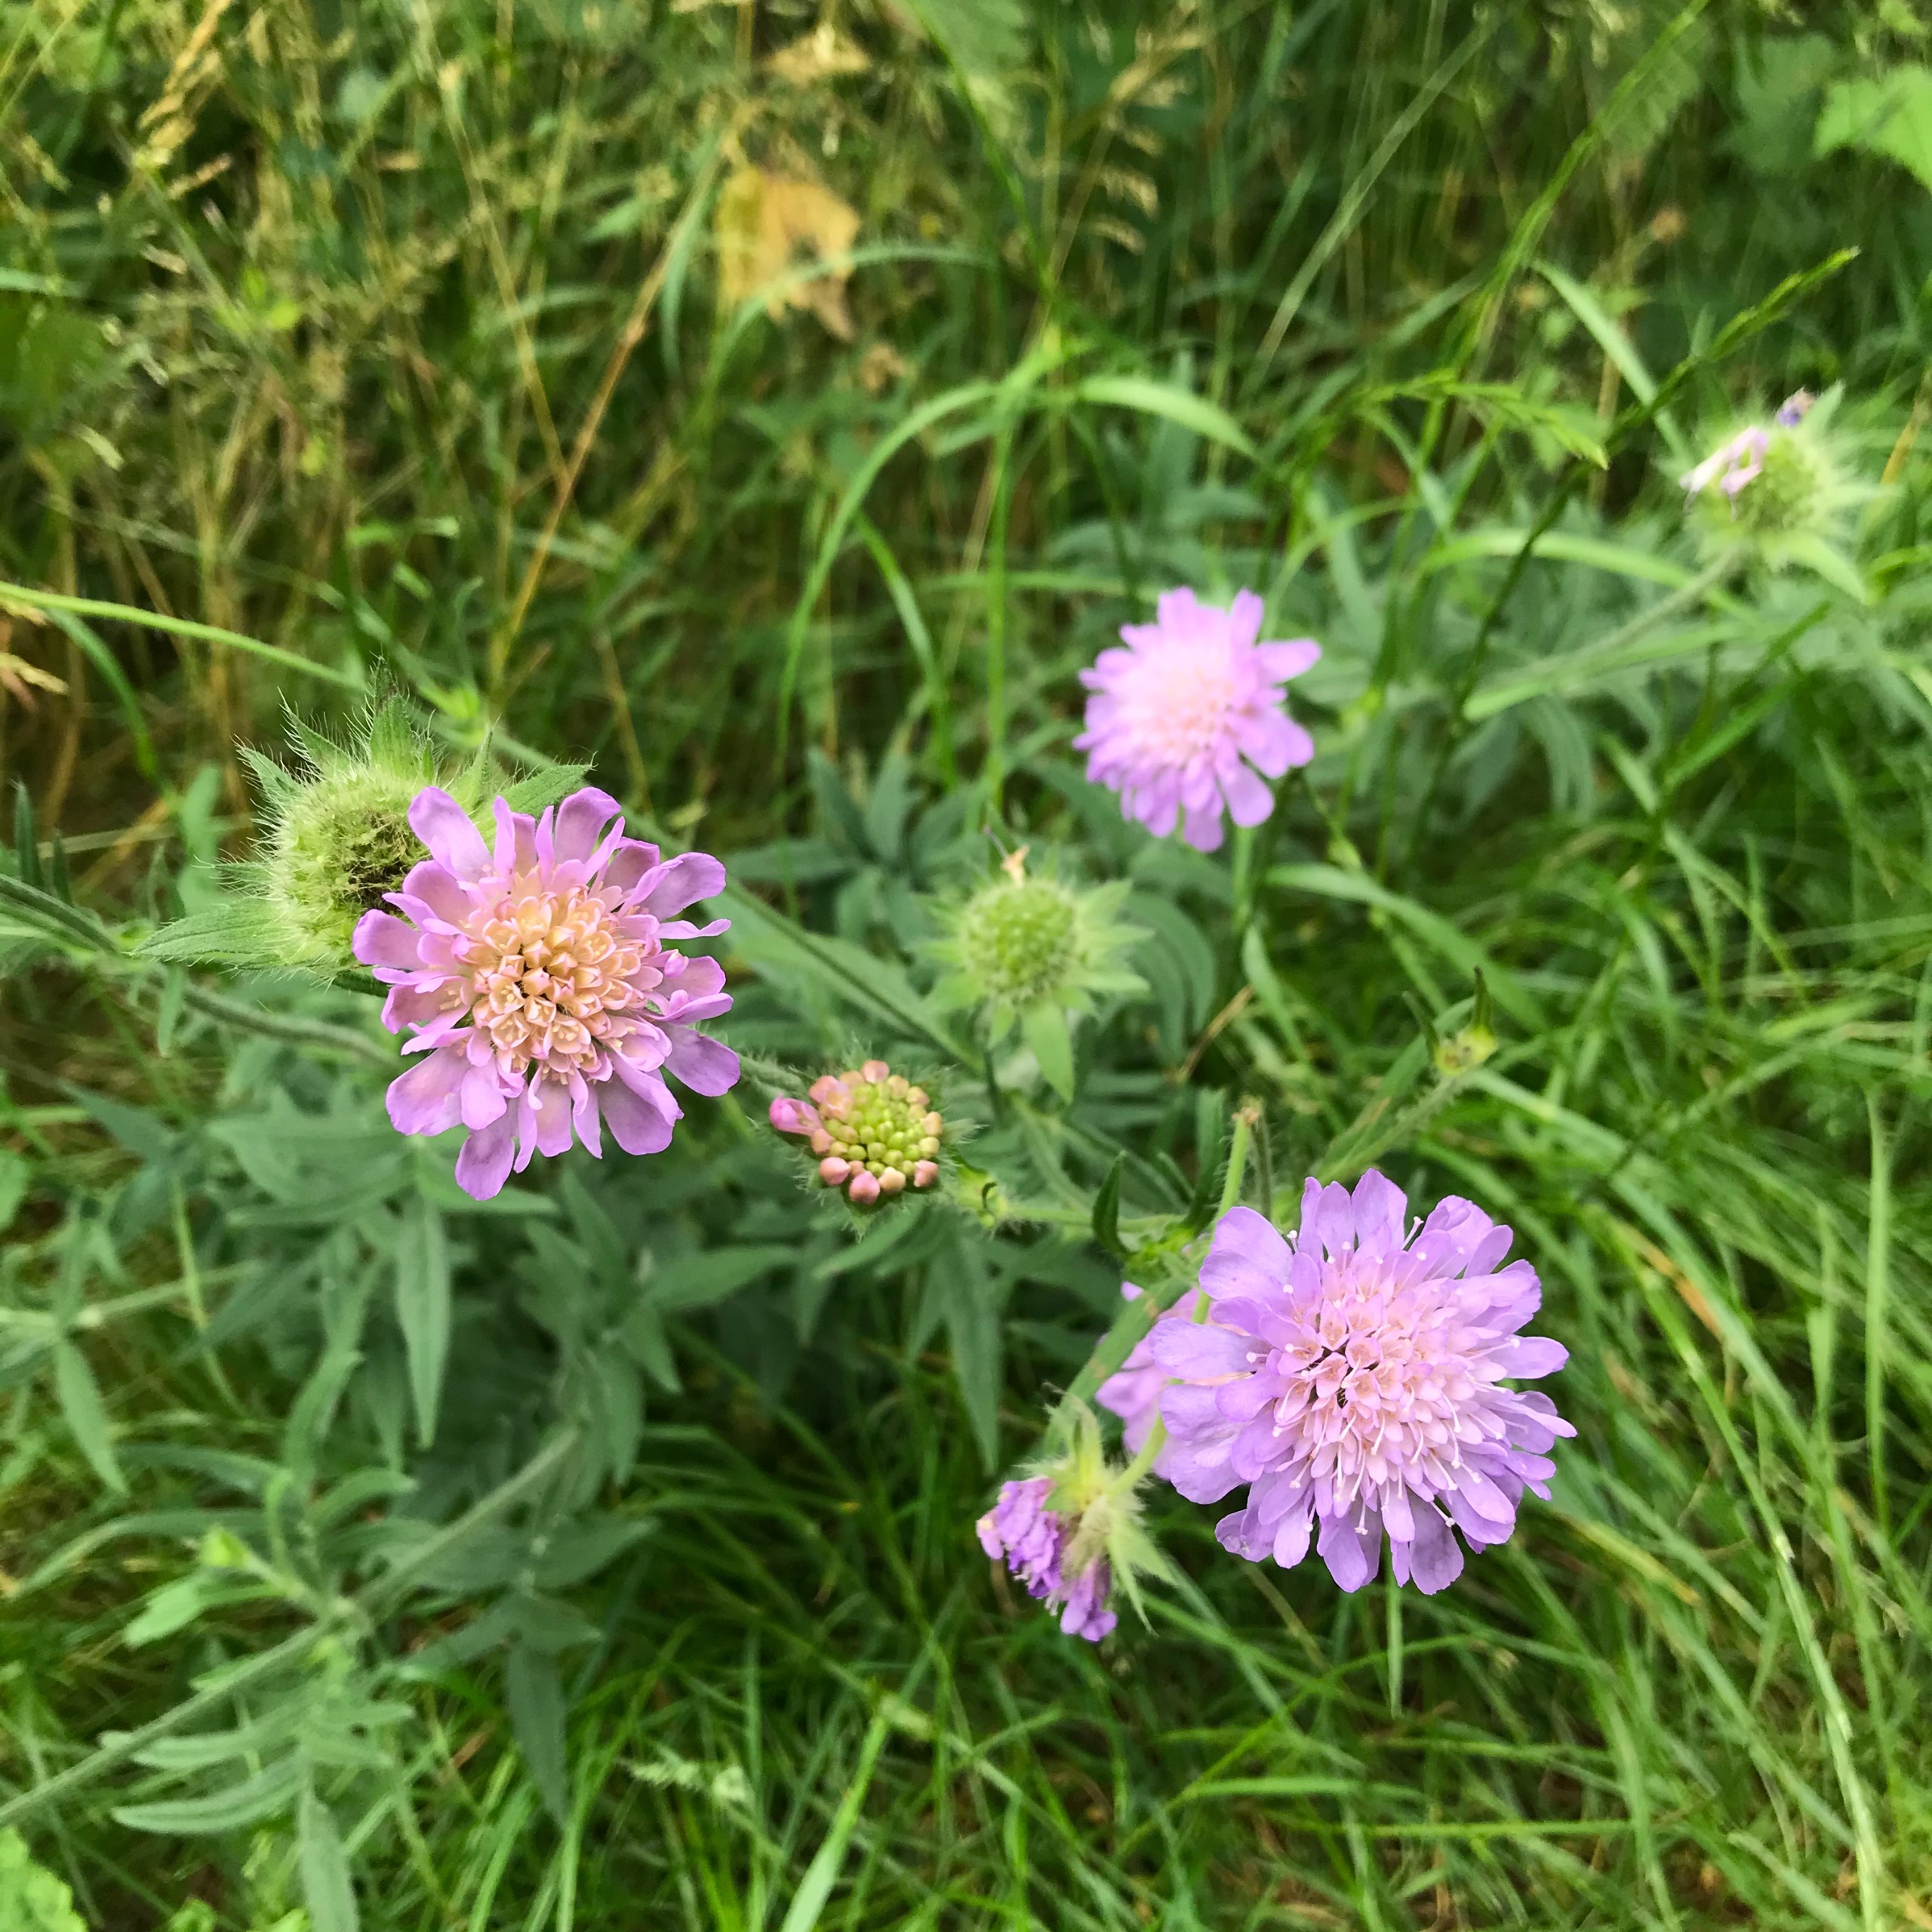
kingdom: Plantae
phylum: Tracheophyta
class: Magnoliopsida
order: Dipsacales
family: Caprifoliaceae
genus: Knautia
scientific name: Knautia arvensis
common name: Blåhat
